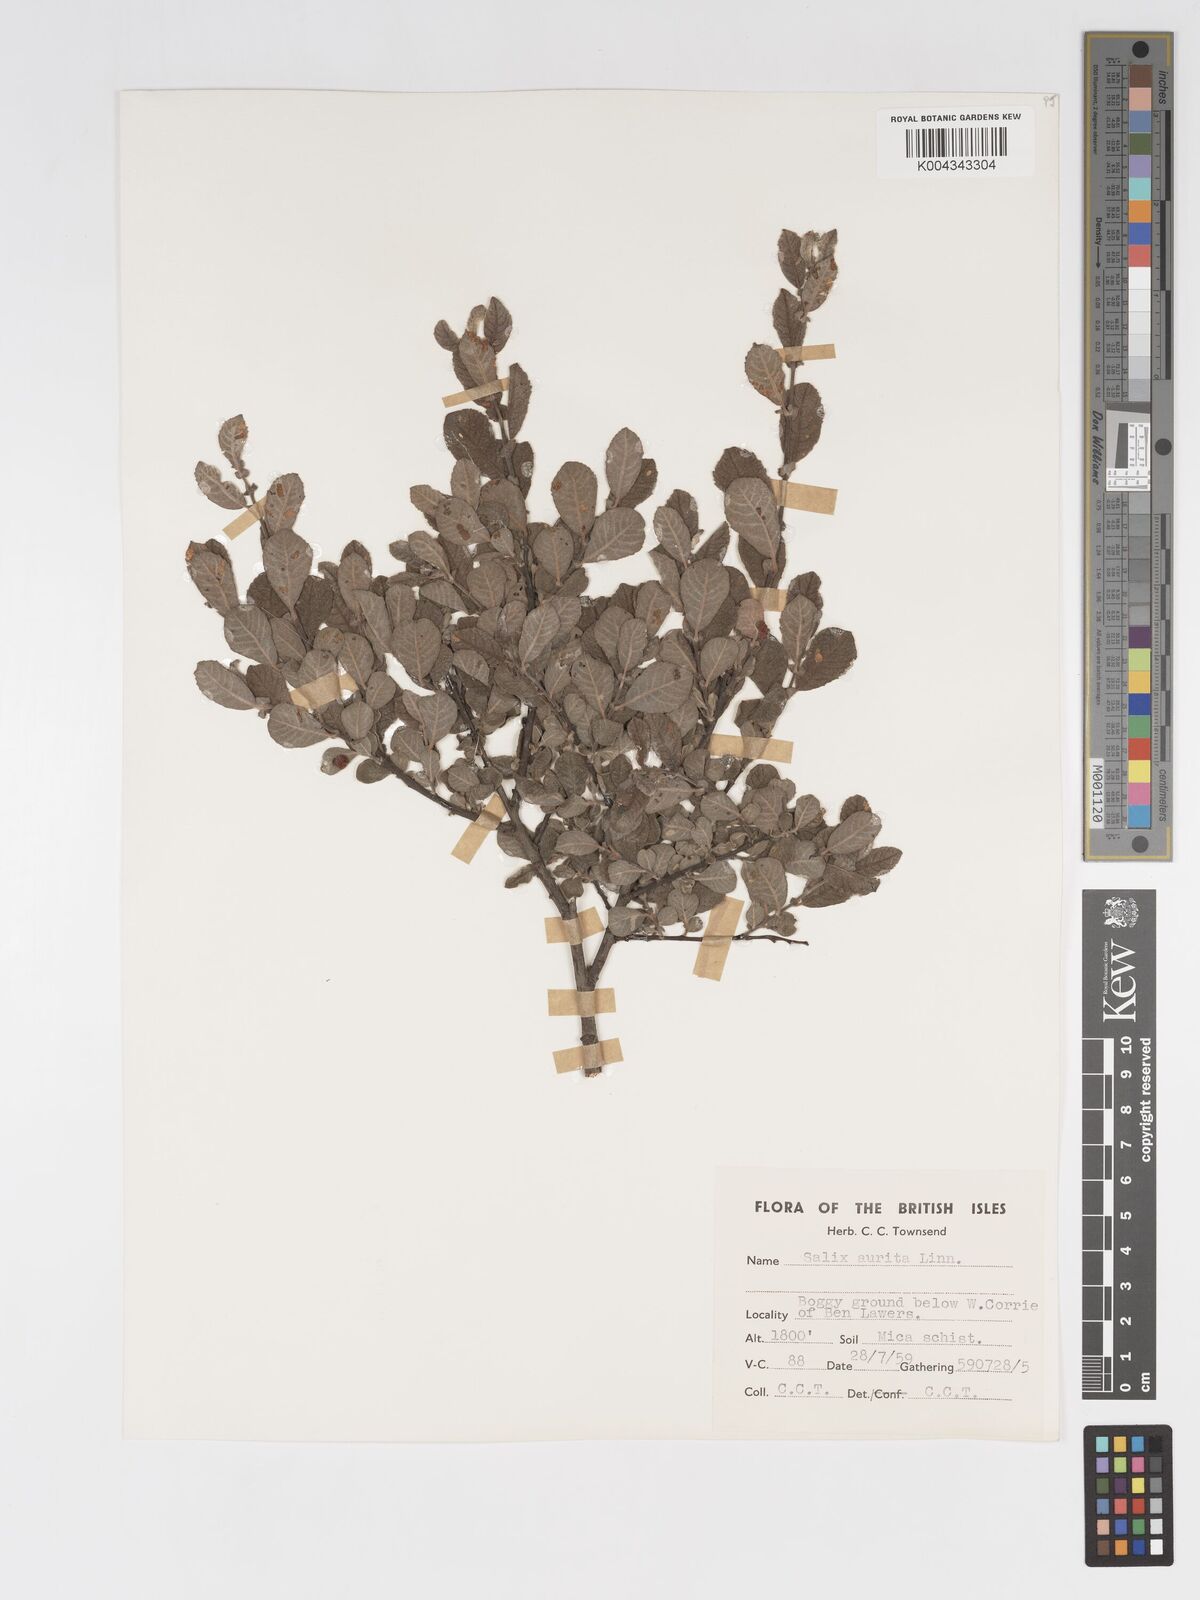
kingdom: Plantae
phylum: Tracheophyta
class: Magnoliopsida
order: Malpighiales
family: Salicaceae
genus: Salix
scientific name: Salix aurita
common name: Eared willow
